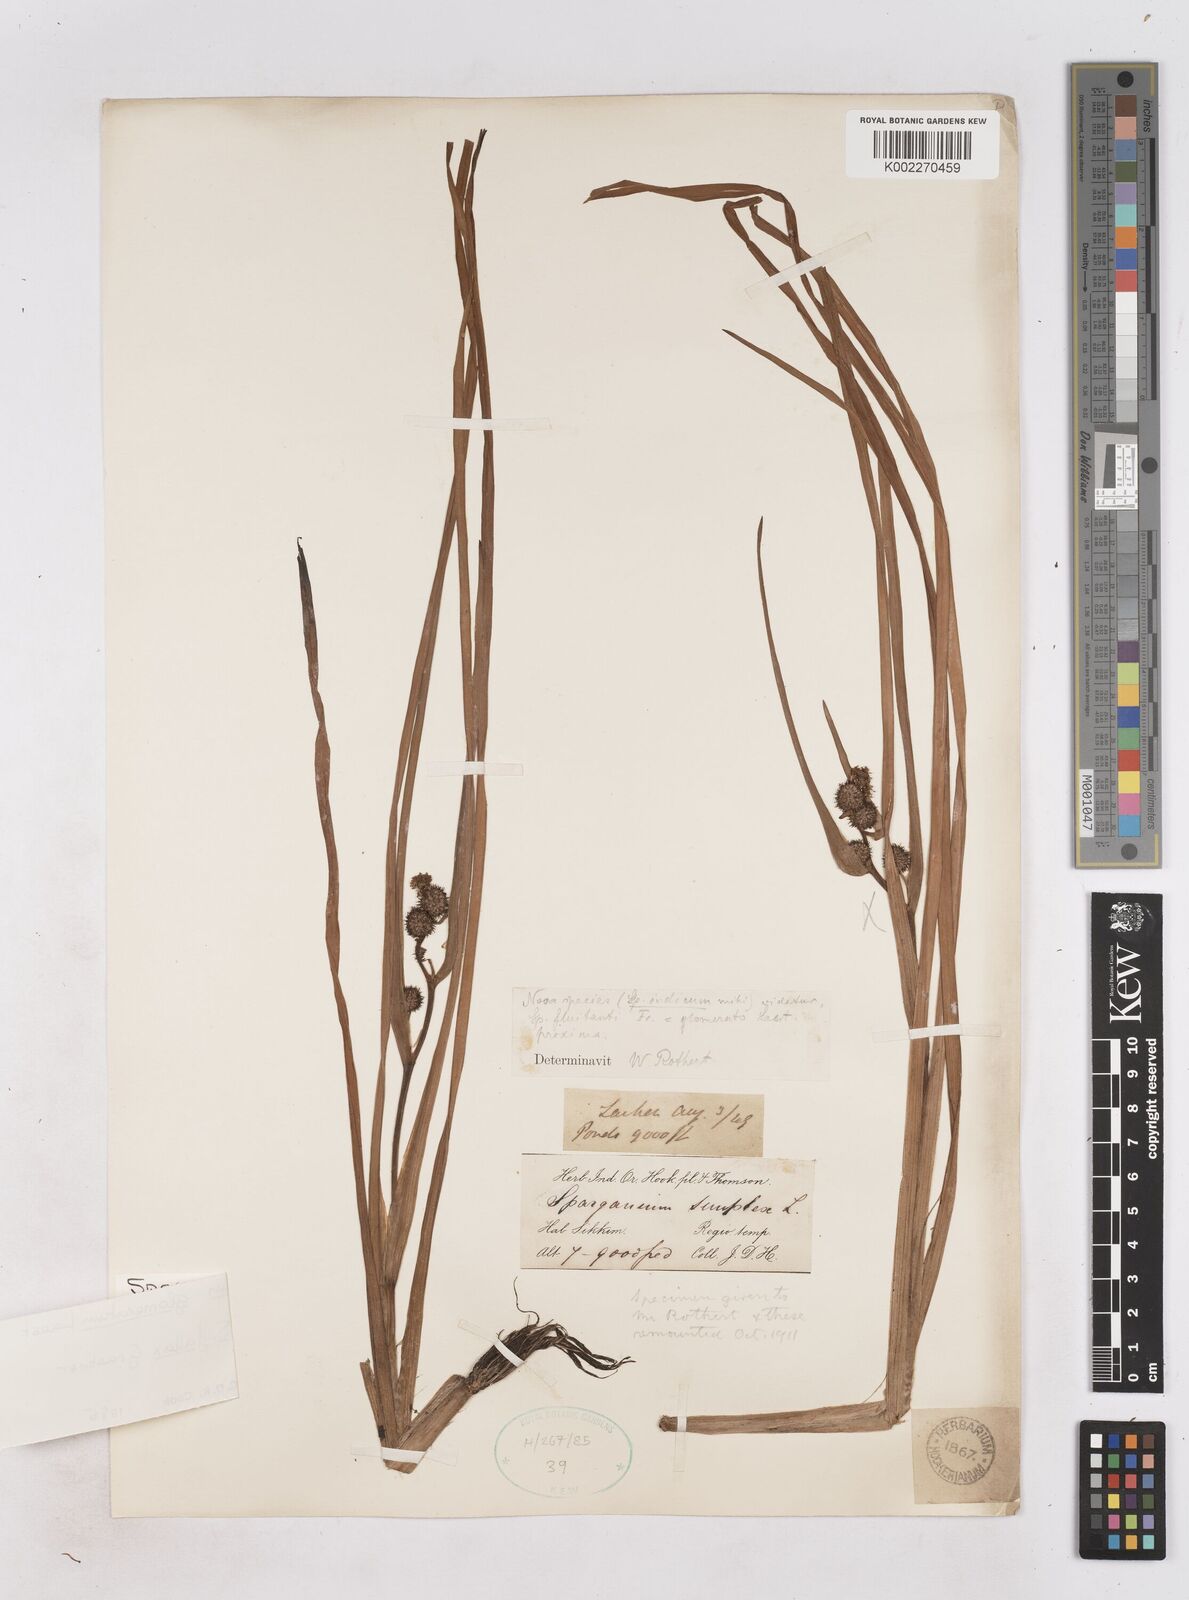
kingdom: Plantae
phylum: Tracheophyta
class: Liliopsida
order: Poales
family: Typhaceae
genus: Sparganium
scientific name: Sparganium fallax
